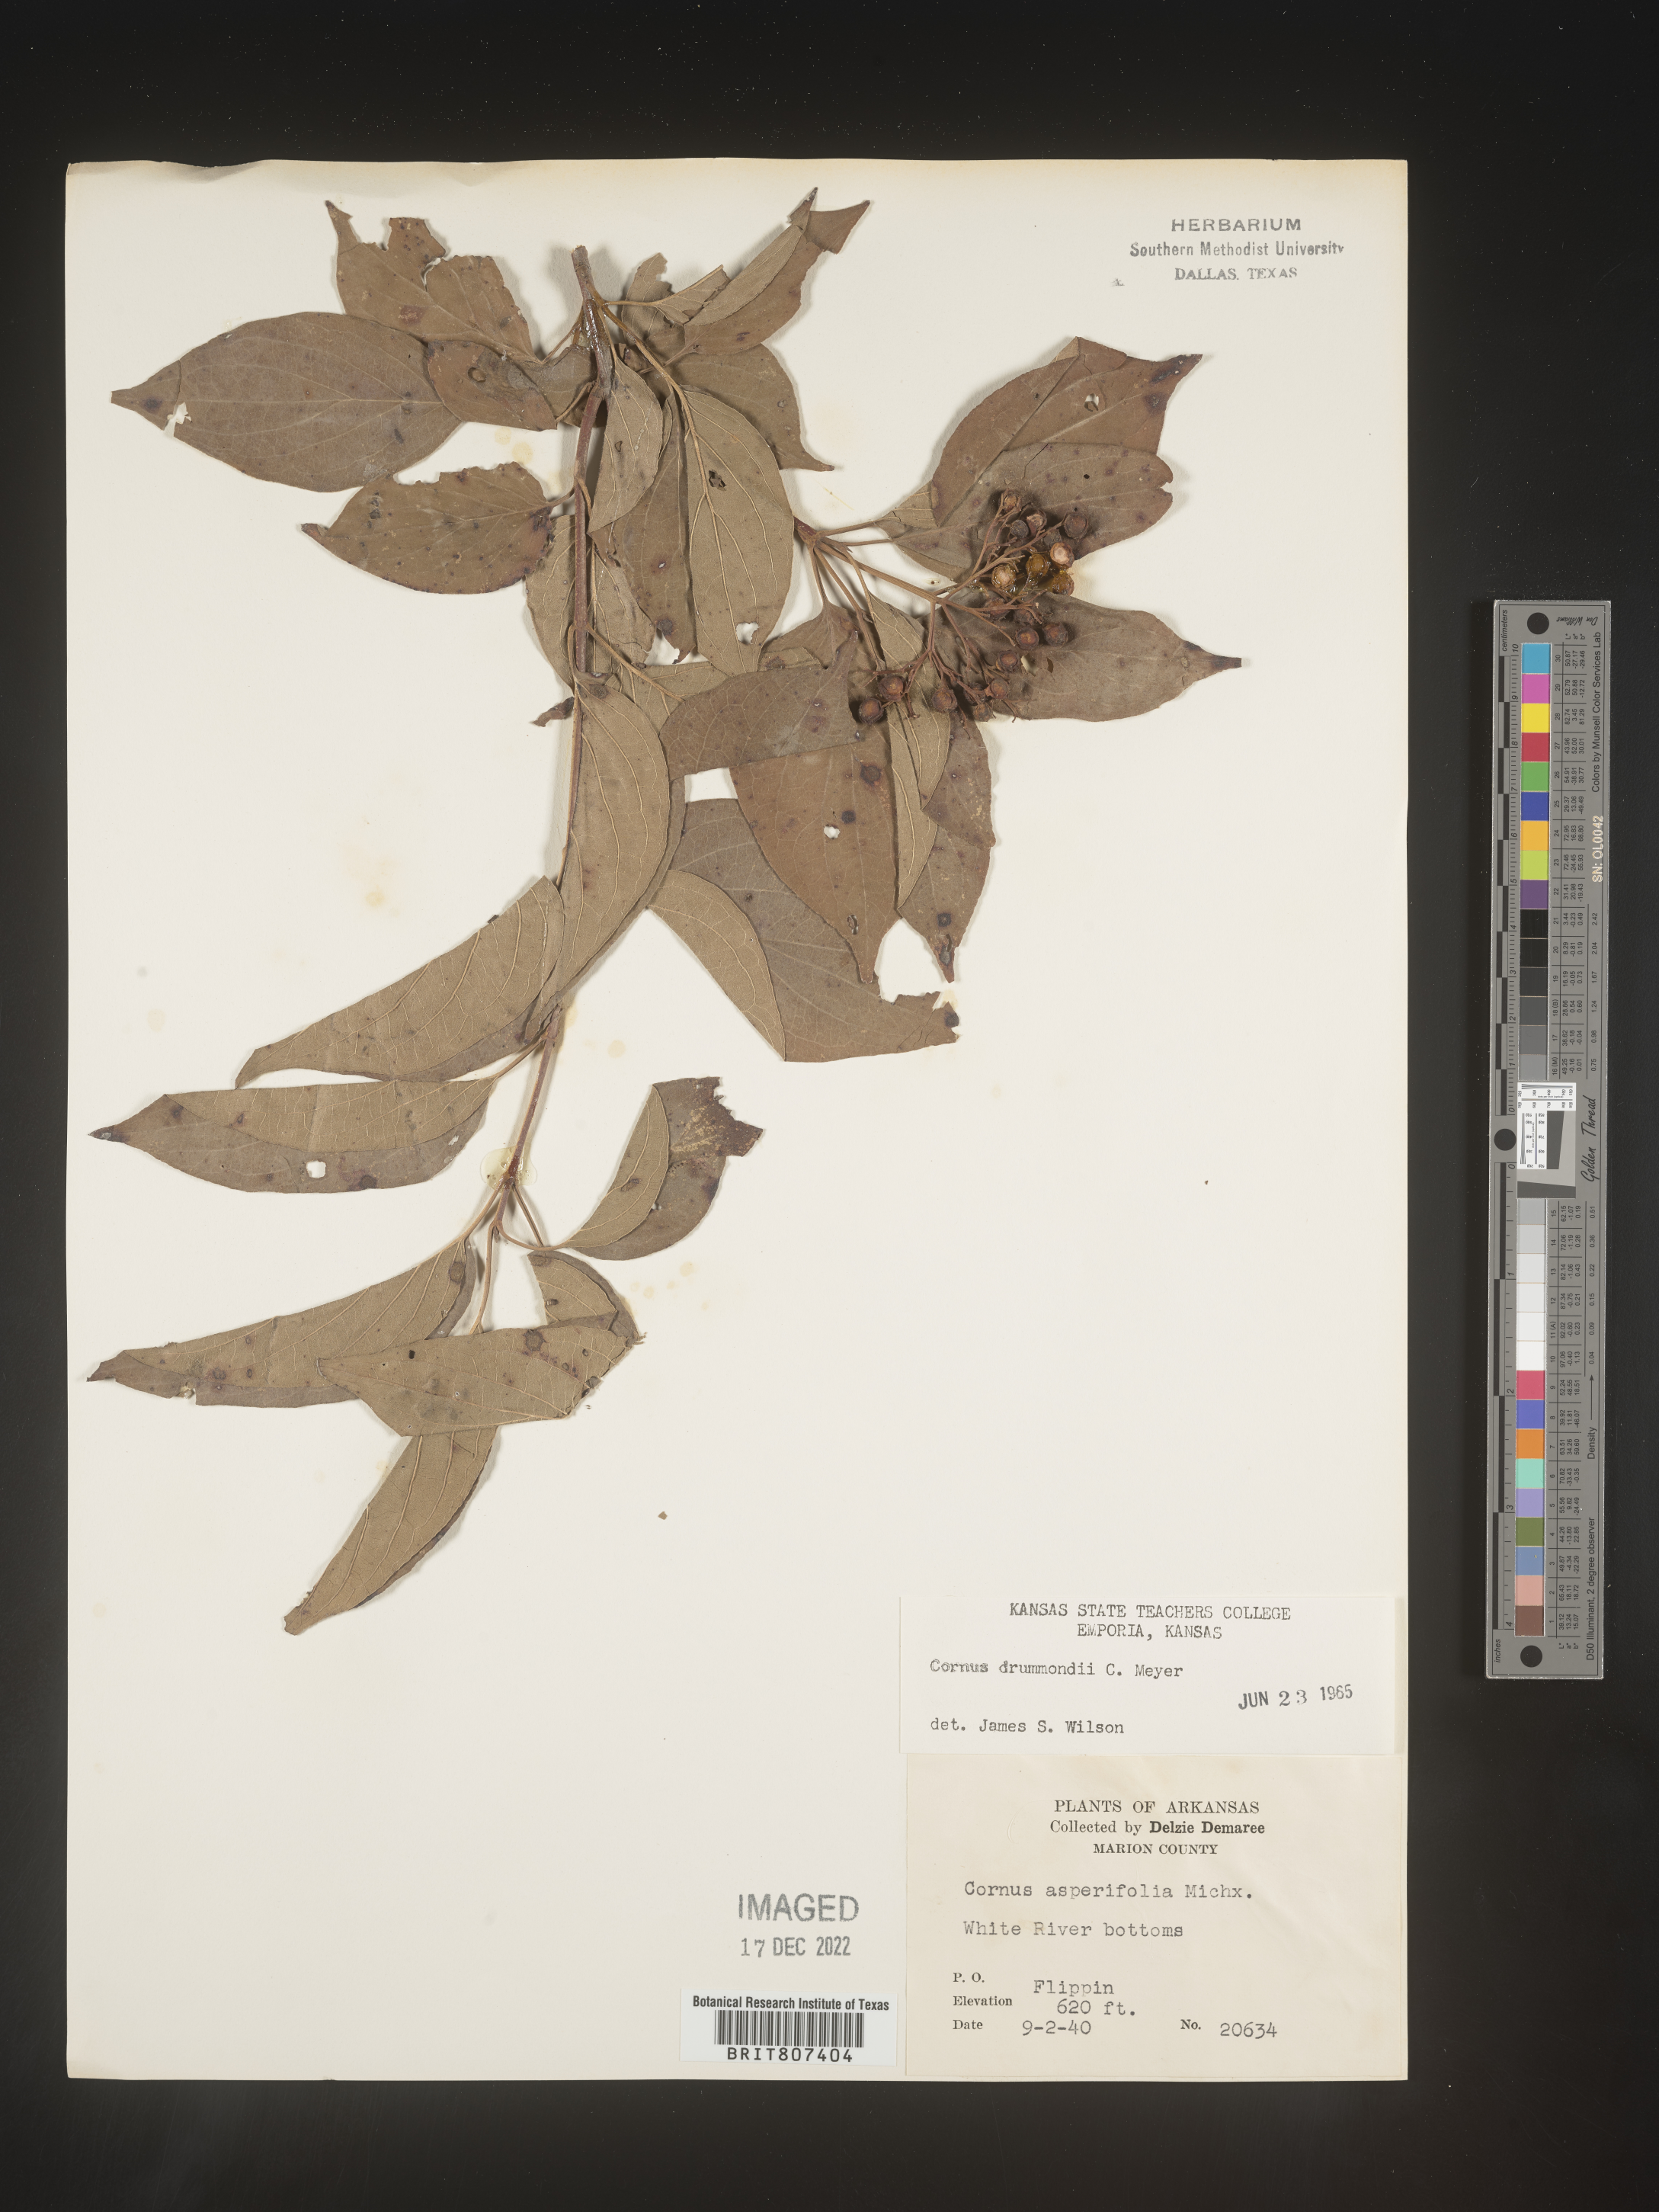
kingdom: Plantae
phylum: Tracheophyta
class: Magnoliopsida
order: Cornales
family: Cornaceae
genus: Cornus
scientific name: Cornus drummondii
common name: Rough-leaf dogwood
